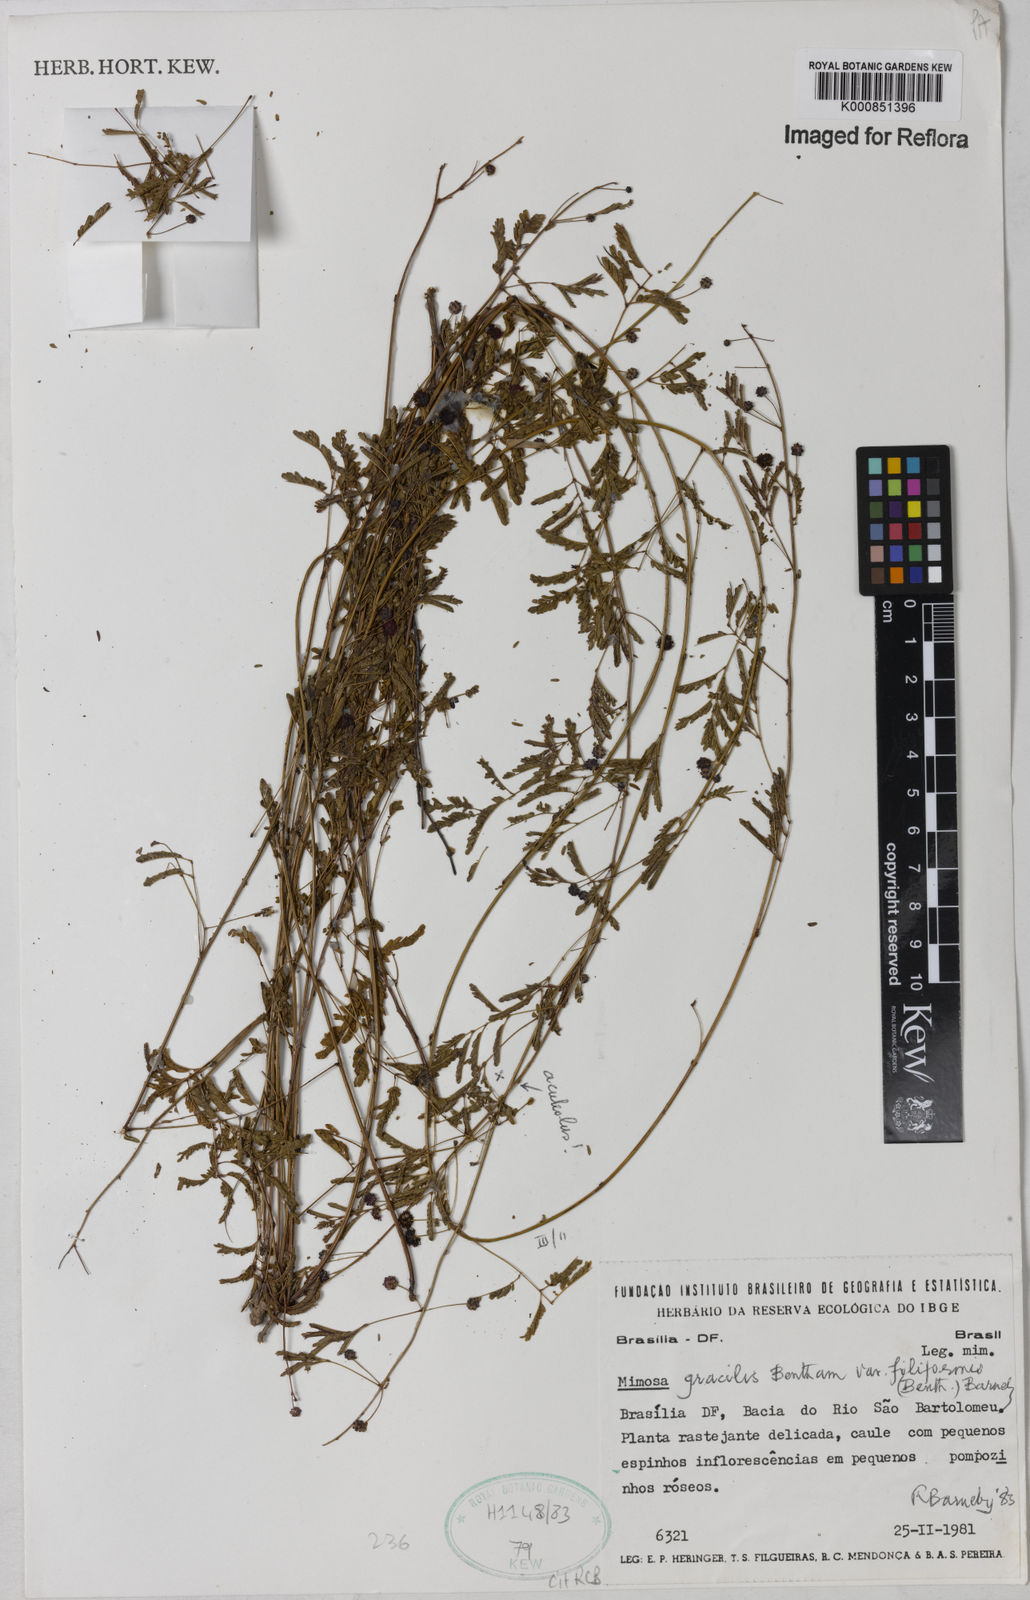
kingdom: Plantae
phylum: Tracheophyta
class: Magnoliopsida
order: Fabales
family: Fabaceae
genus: Mimosa
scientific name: Mimosa gracilis
